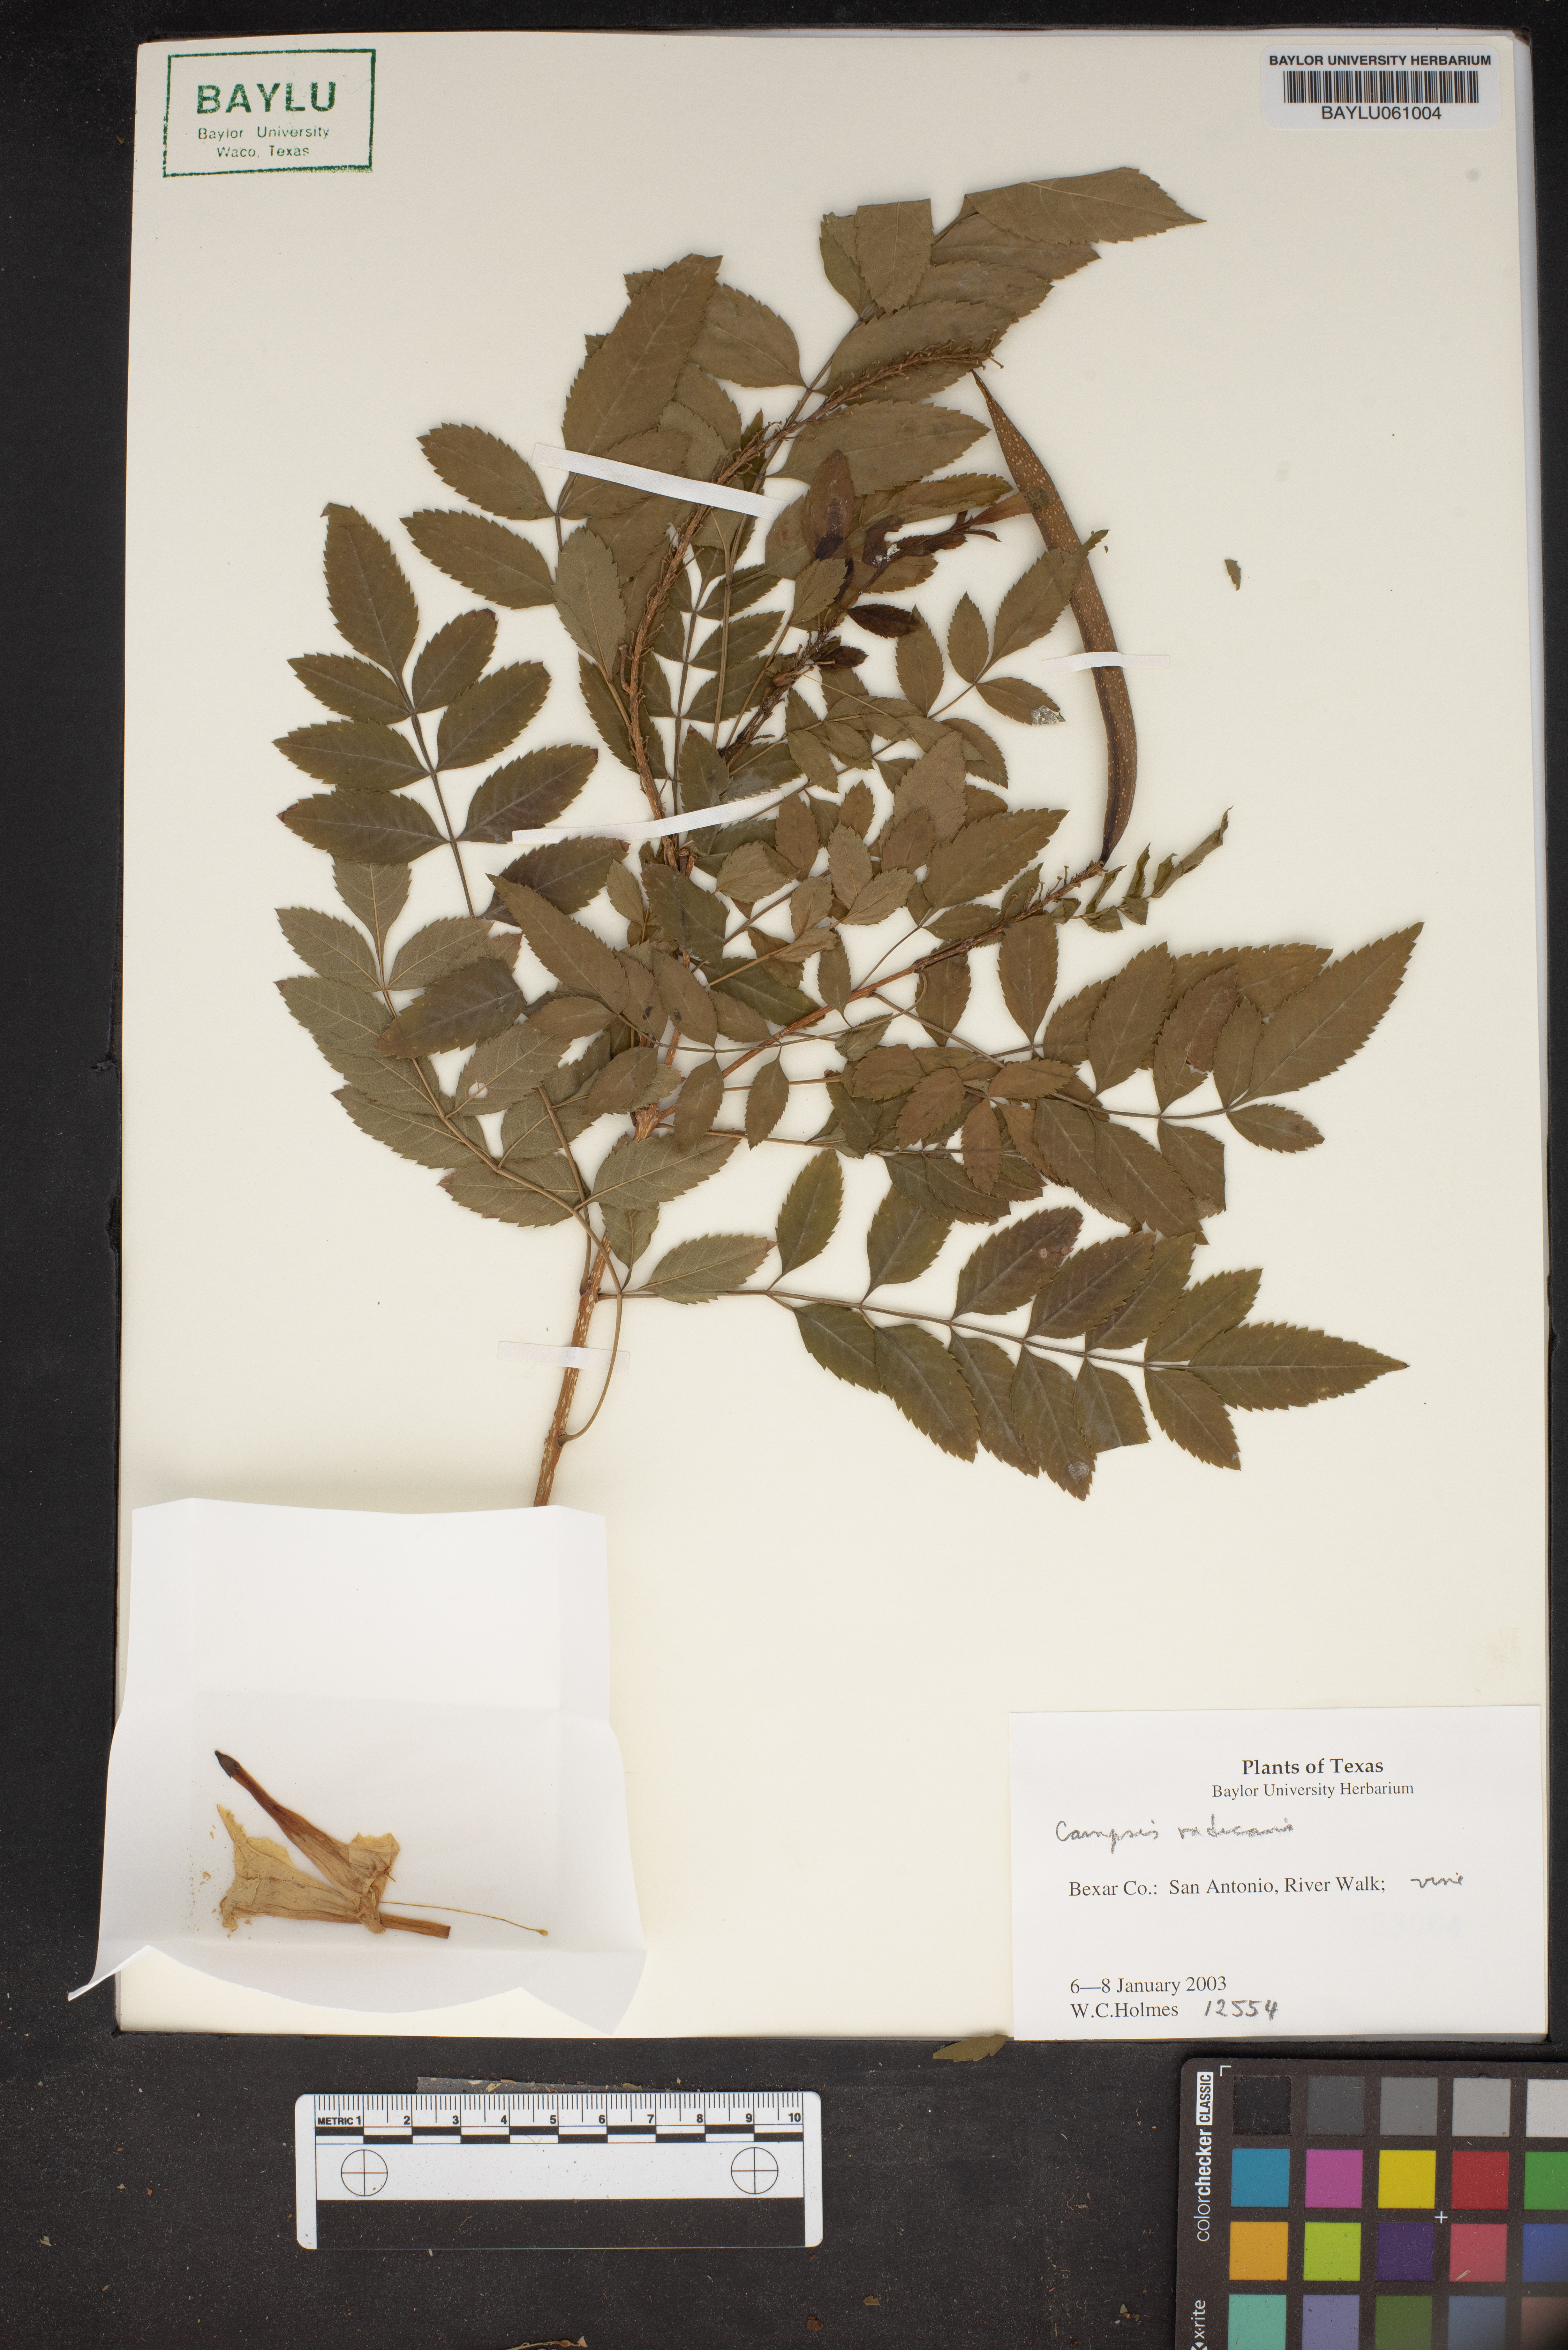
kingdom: Plantae
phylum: Tracheophyta
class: Magnoliopsida
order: Lamiales
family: Bignoniaceae
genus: Campsis
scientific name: Campsis radicans
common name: Trumpet-creeper
